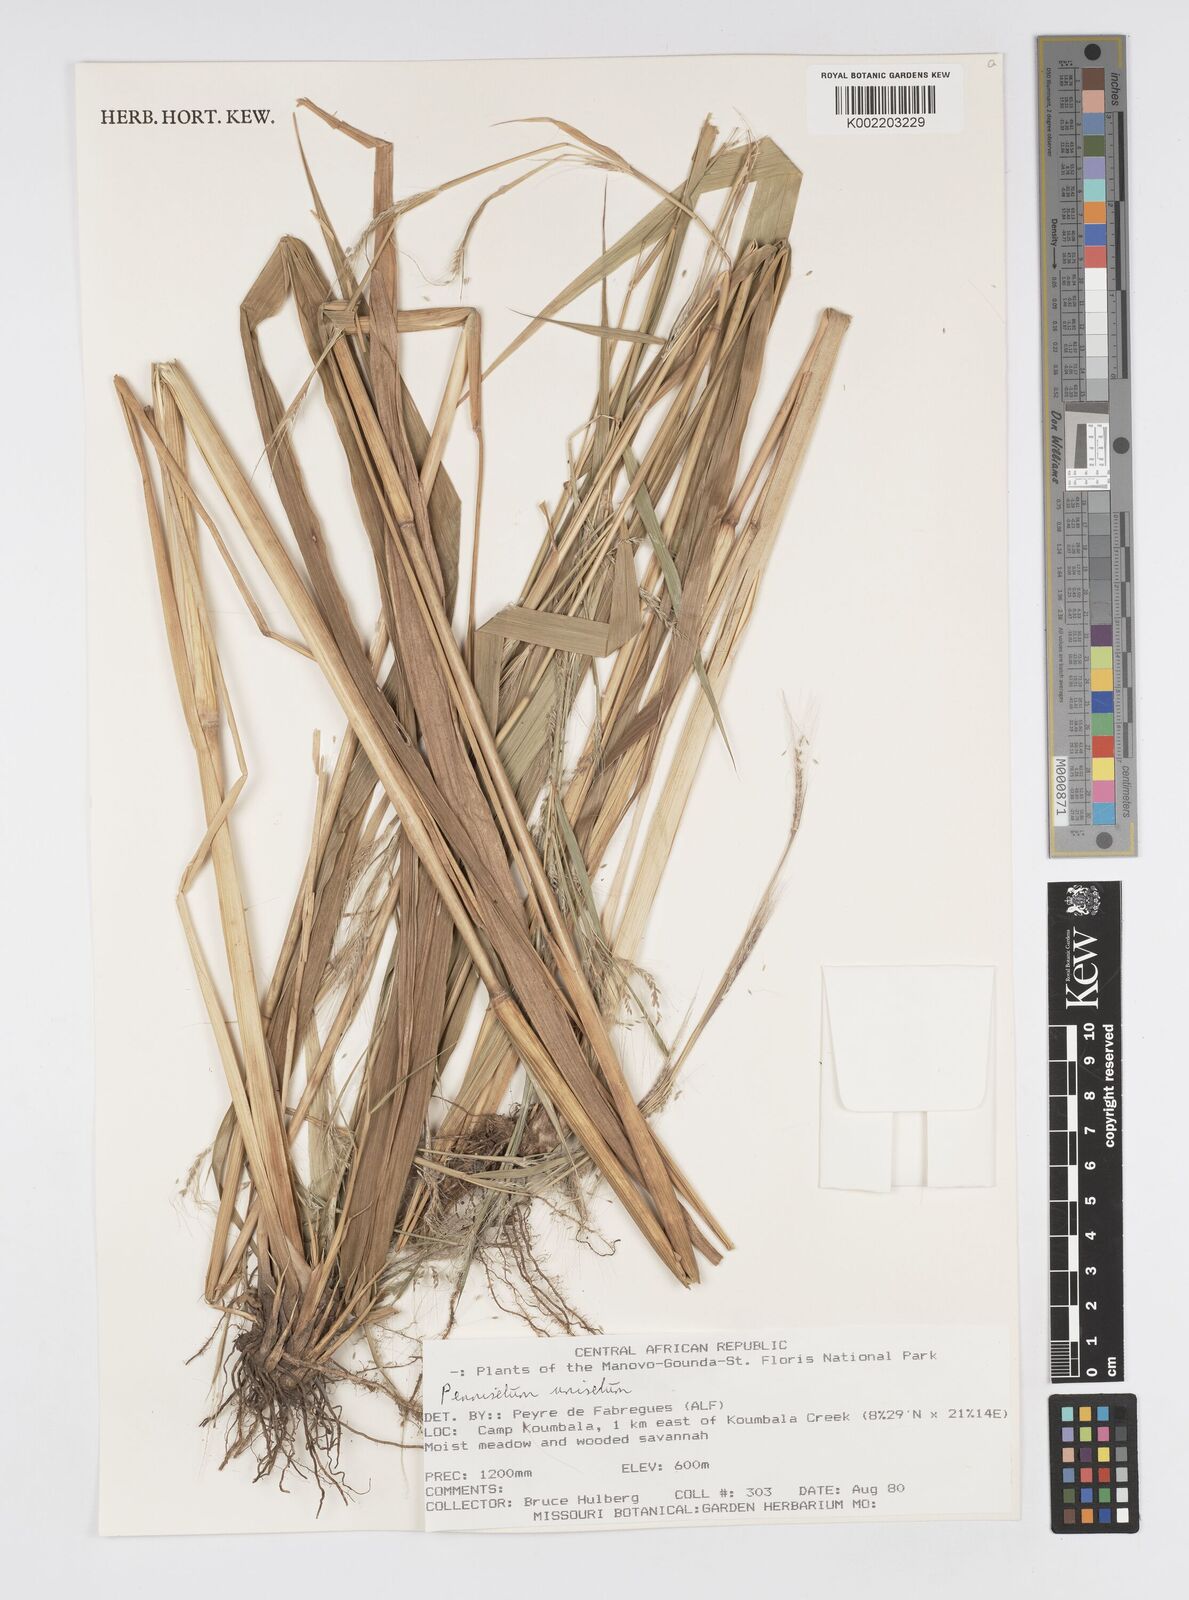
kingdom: Plantae
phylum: Tracheophyta
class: Liliopsida
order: Poales
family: Poaceae
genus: Cenchrus
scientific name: Cenchrus unisetus
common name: Natal grass
